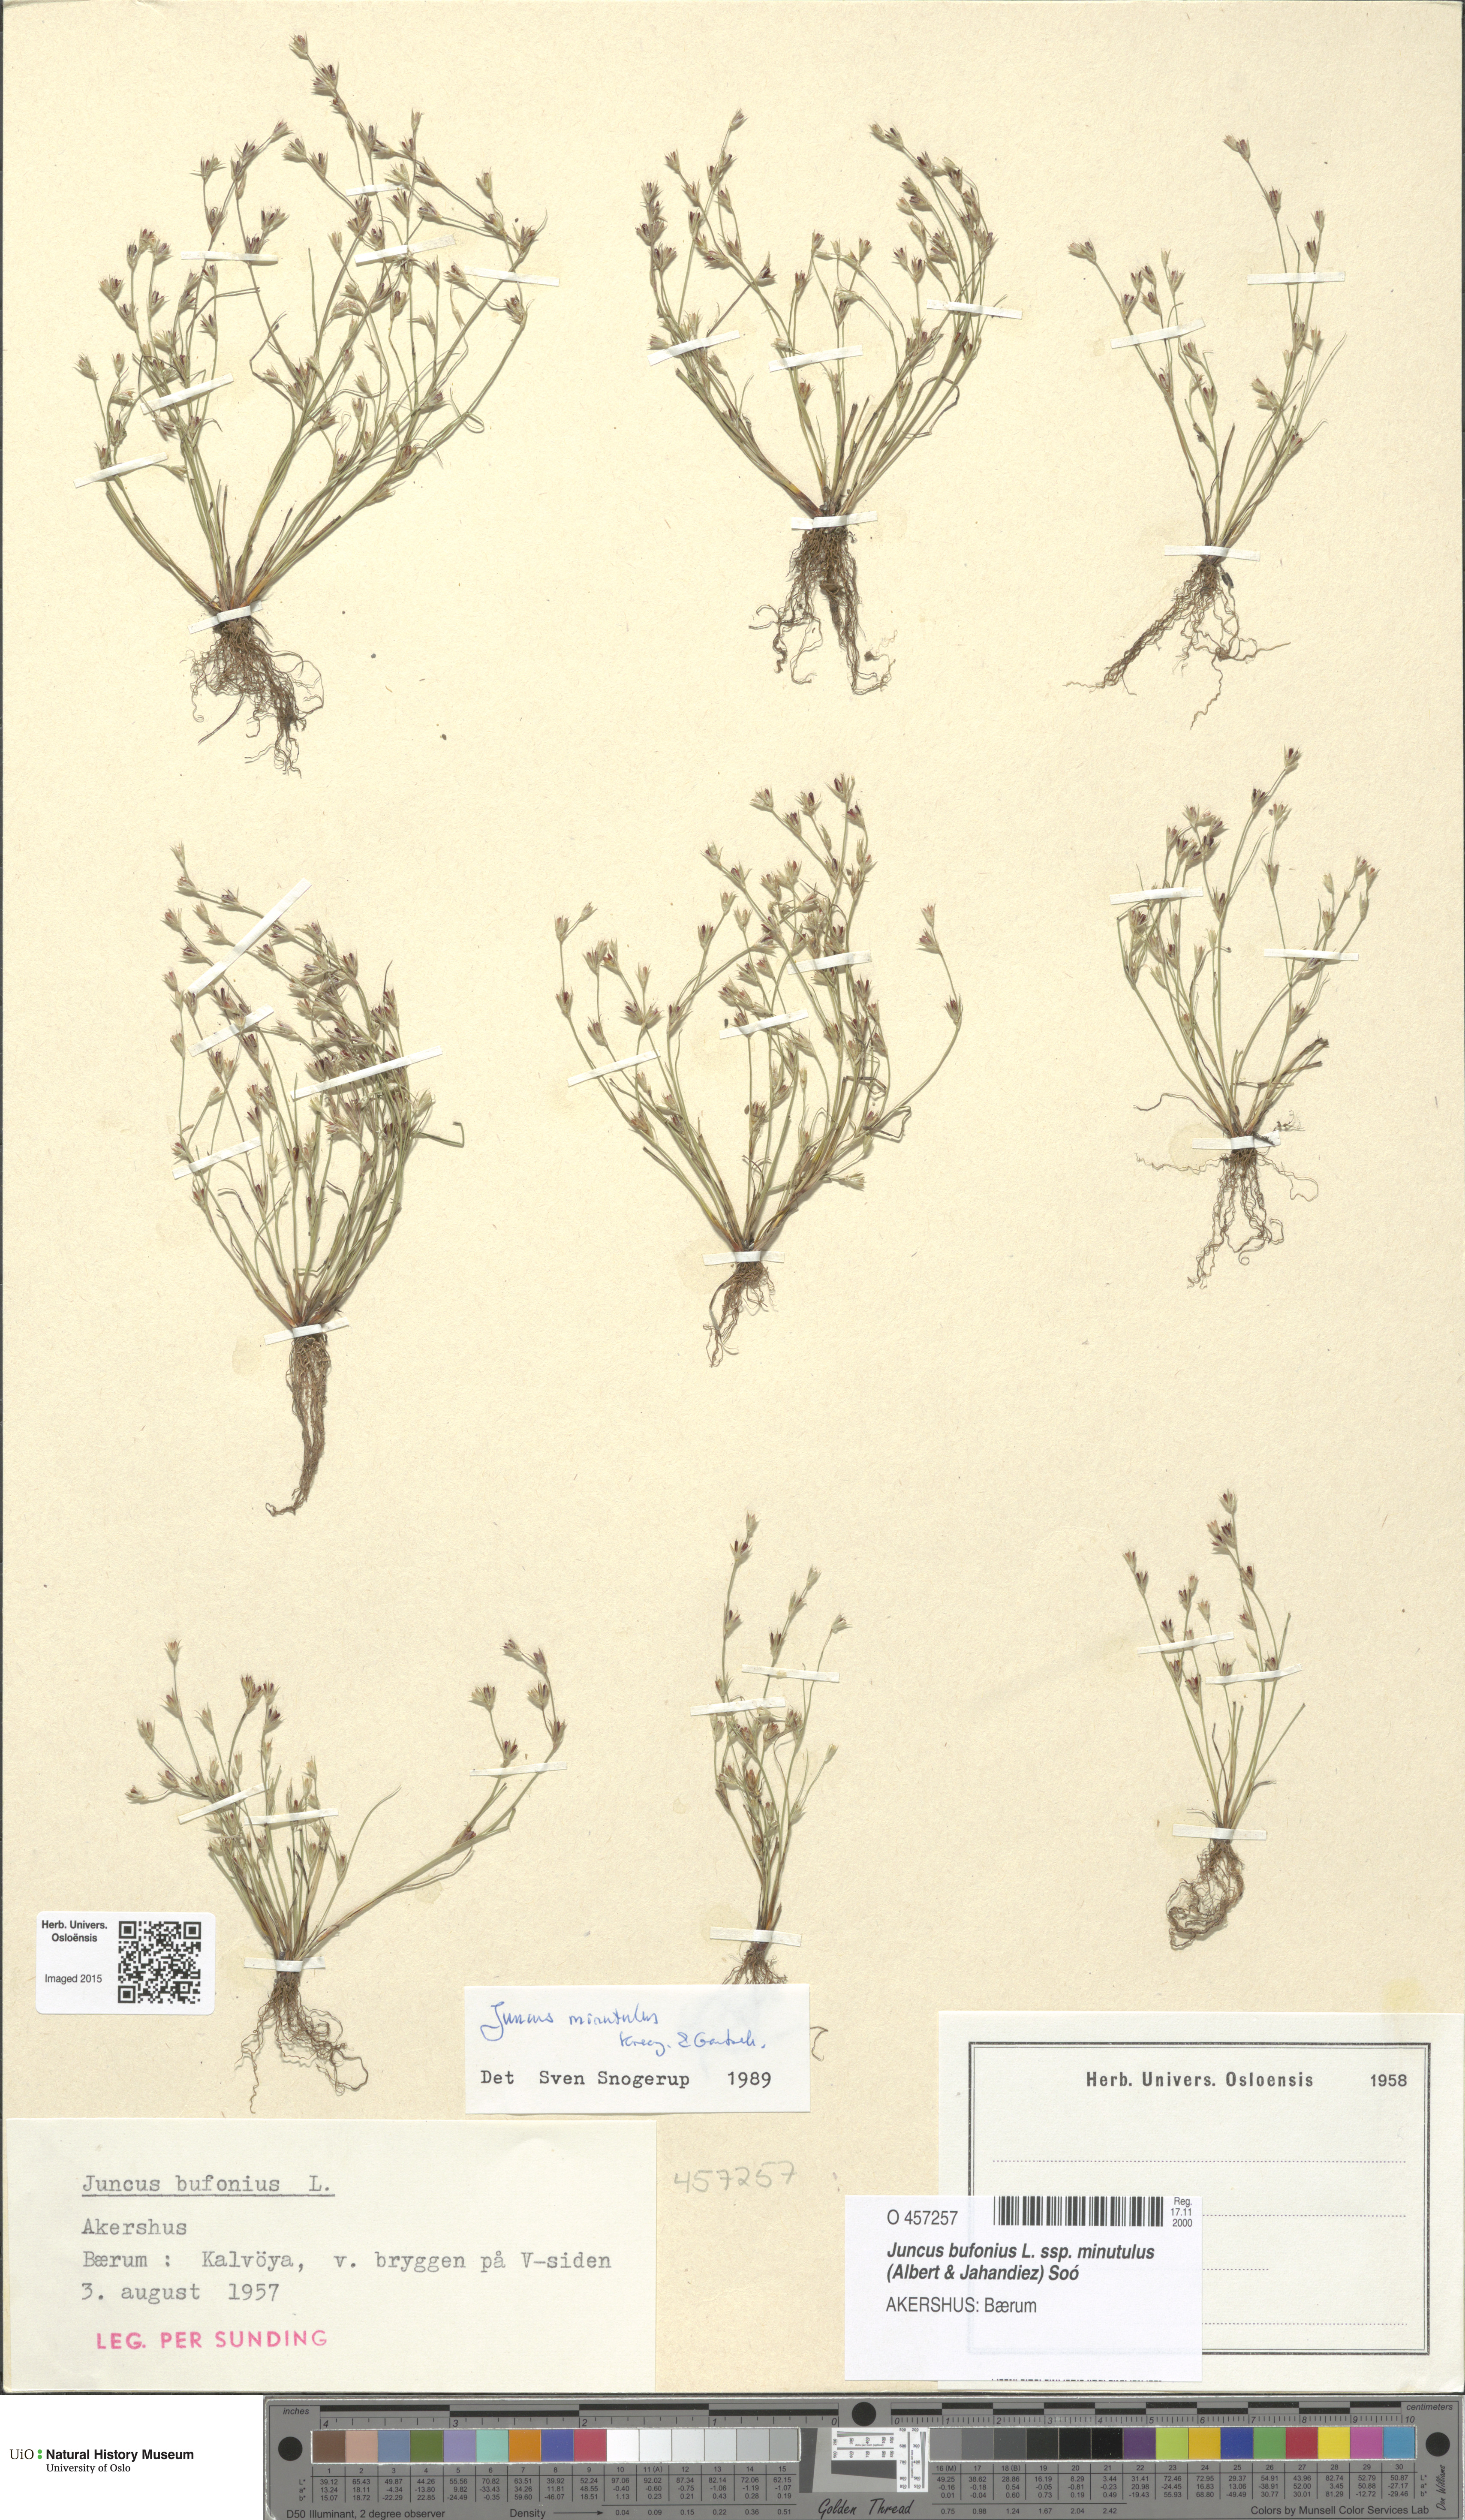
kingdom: Plantae
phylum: Tracheophyta
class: Liliopsida
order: Poales
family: Juncaceae
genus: Juncus
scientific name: Juncus minutulus
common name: Minute rush
